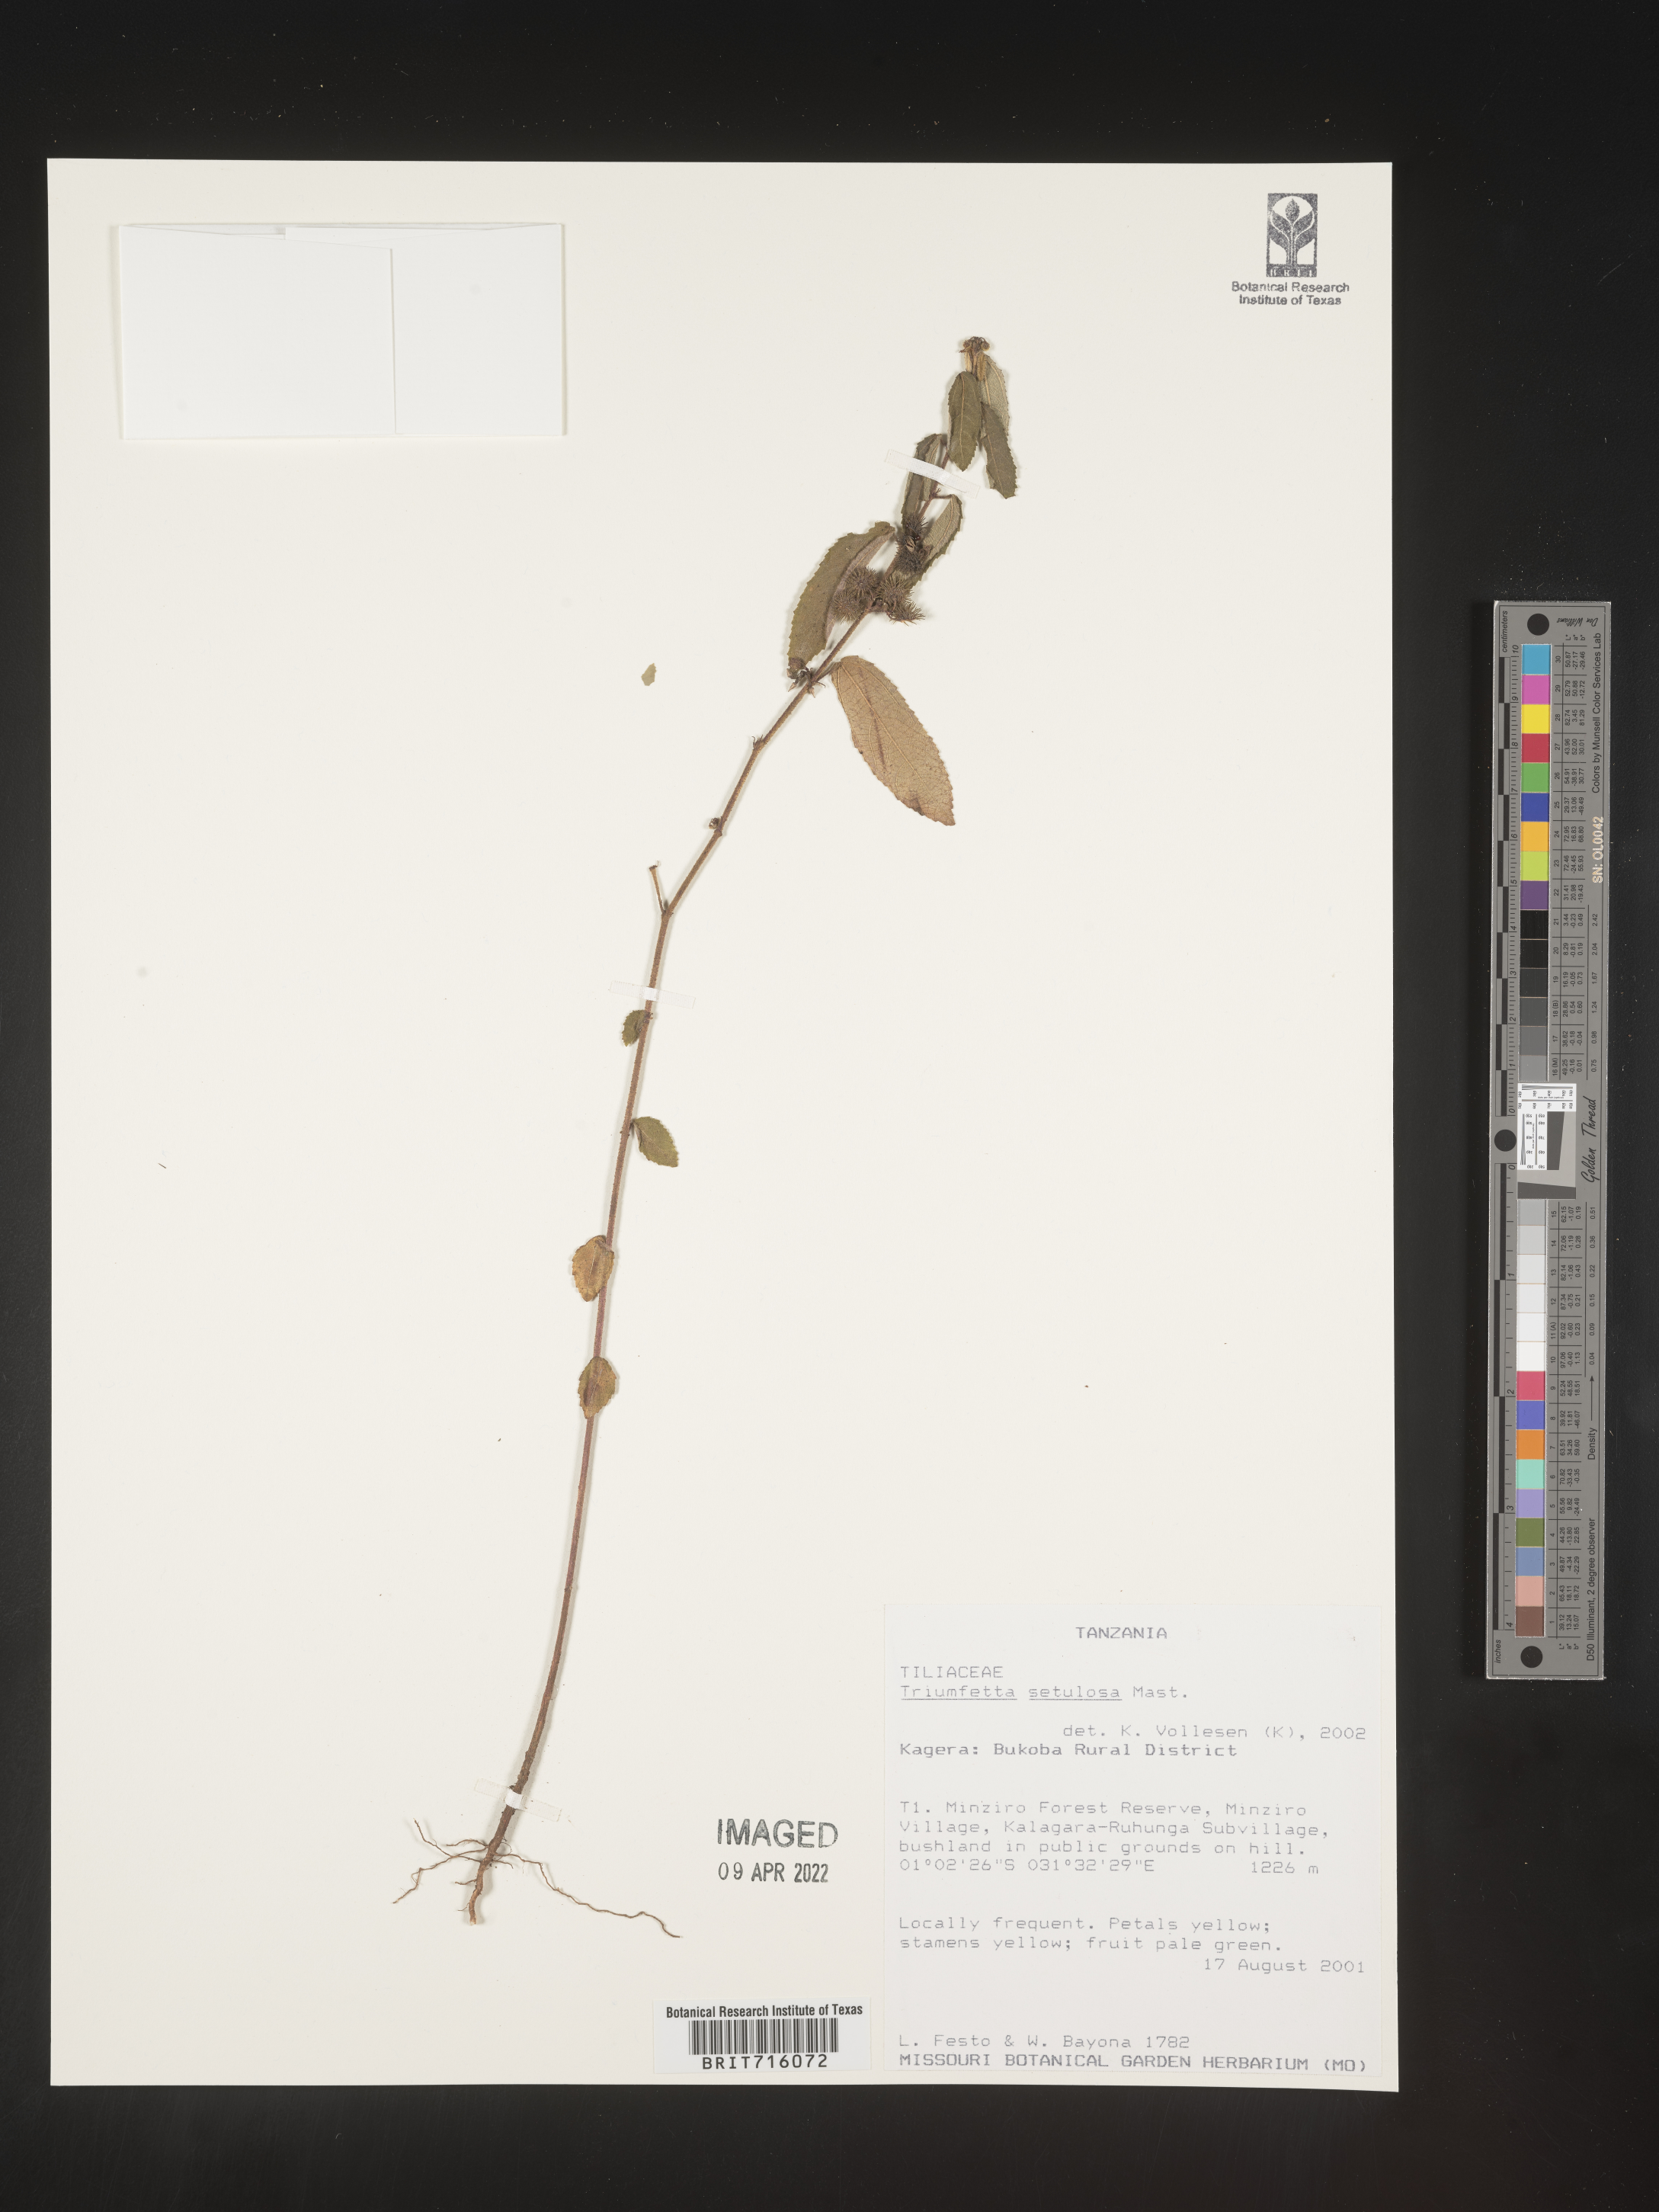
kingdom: Plantae
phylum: Tracheophyta
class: Magnoliopsida
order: Malvales
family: Malvaceae
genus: Triumfetta
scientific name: Triumfetta
